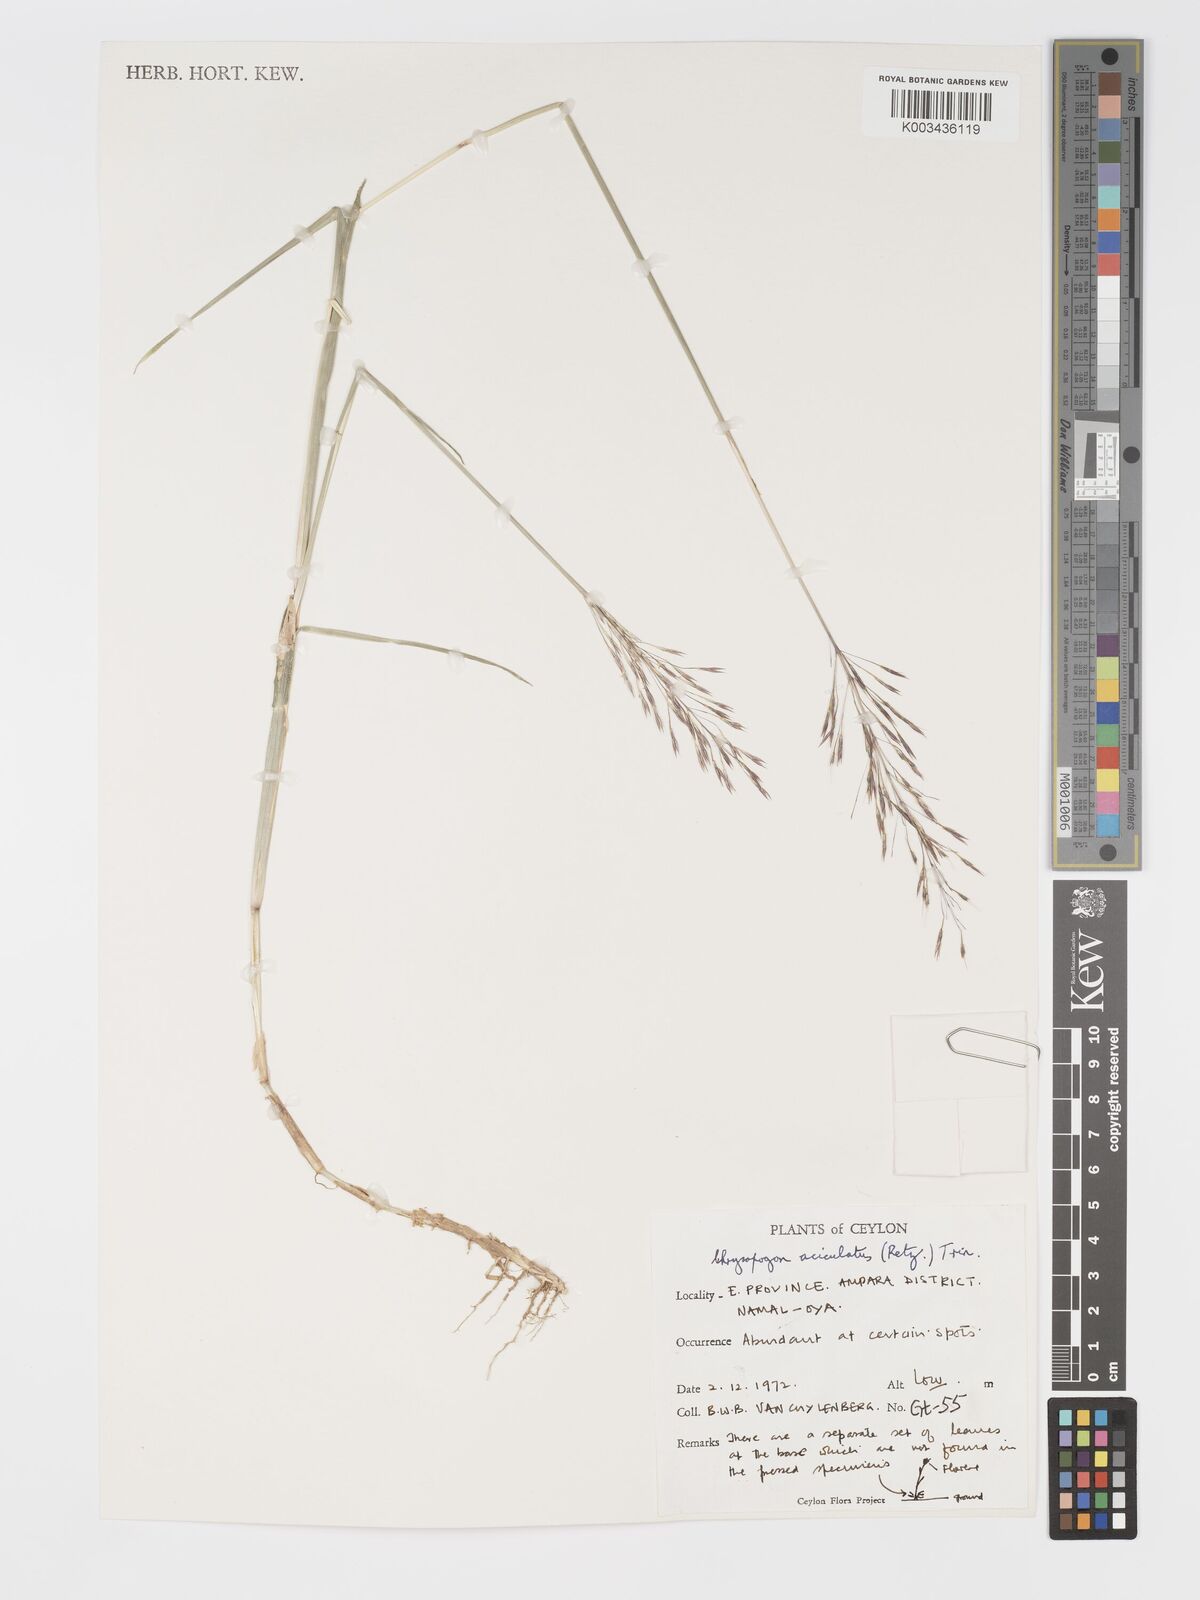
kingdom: Plantae
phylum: Tracheophyta
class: Liliopsida
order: Poales
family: Poaceae
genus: Chrysopogon
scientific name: Chrysopogon aciculatus
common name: Pilipiliula
